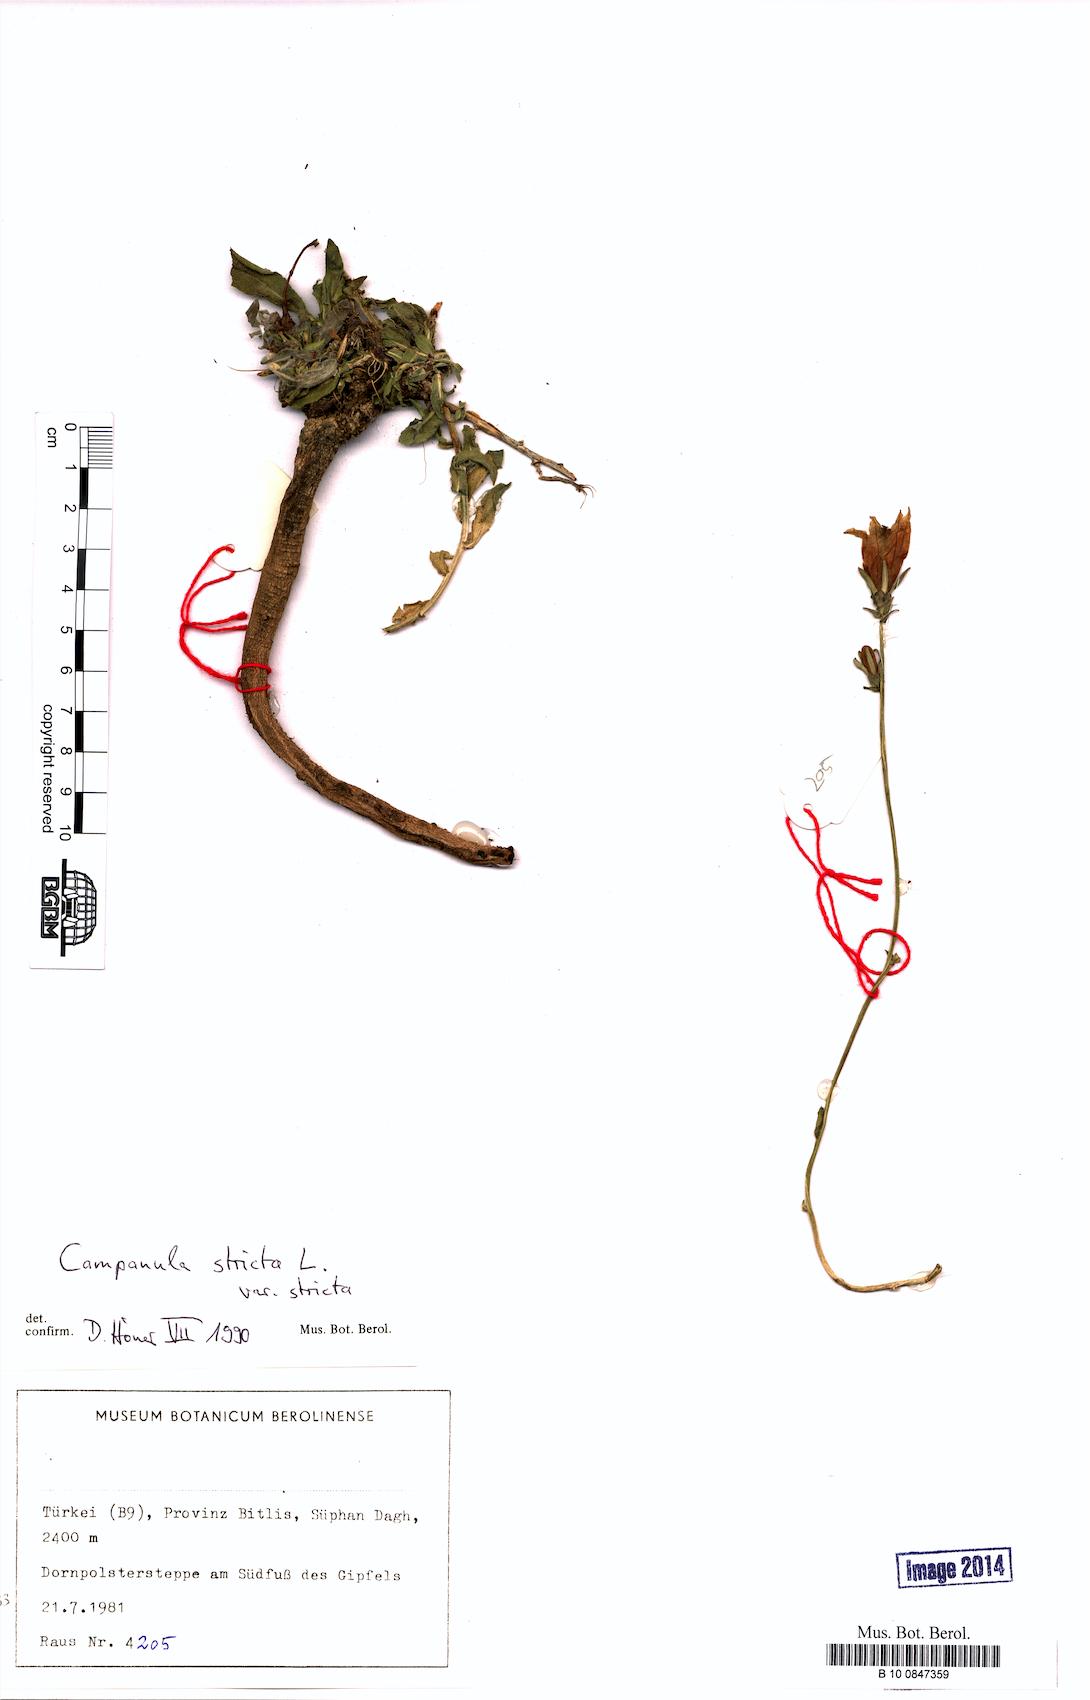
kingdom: Plantae
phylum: Tracheophyta
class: Magnoliopsida
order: Asterales
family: Campanulaceae
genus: Campanula
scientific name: Campanula stricta
